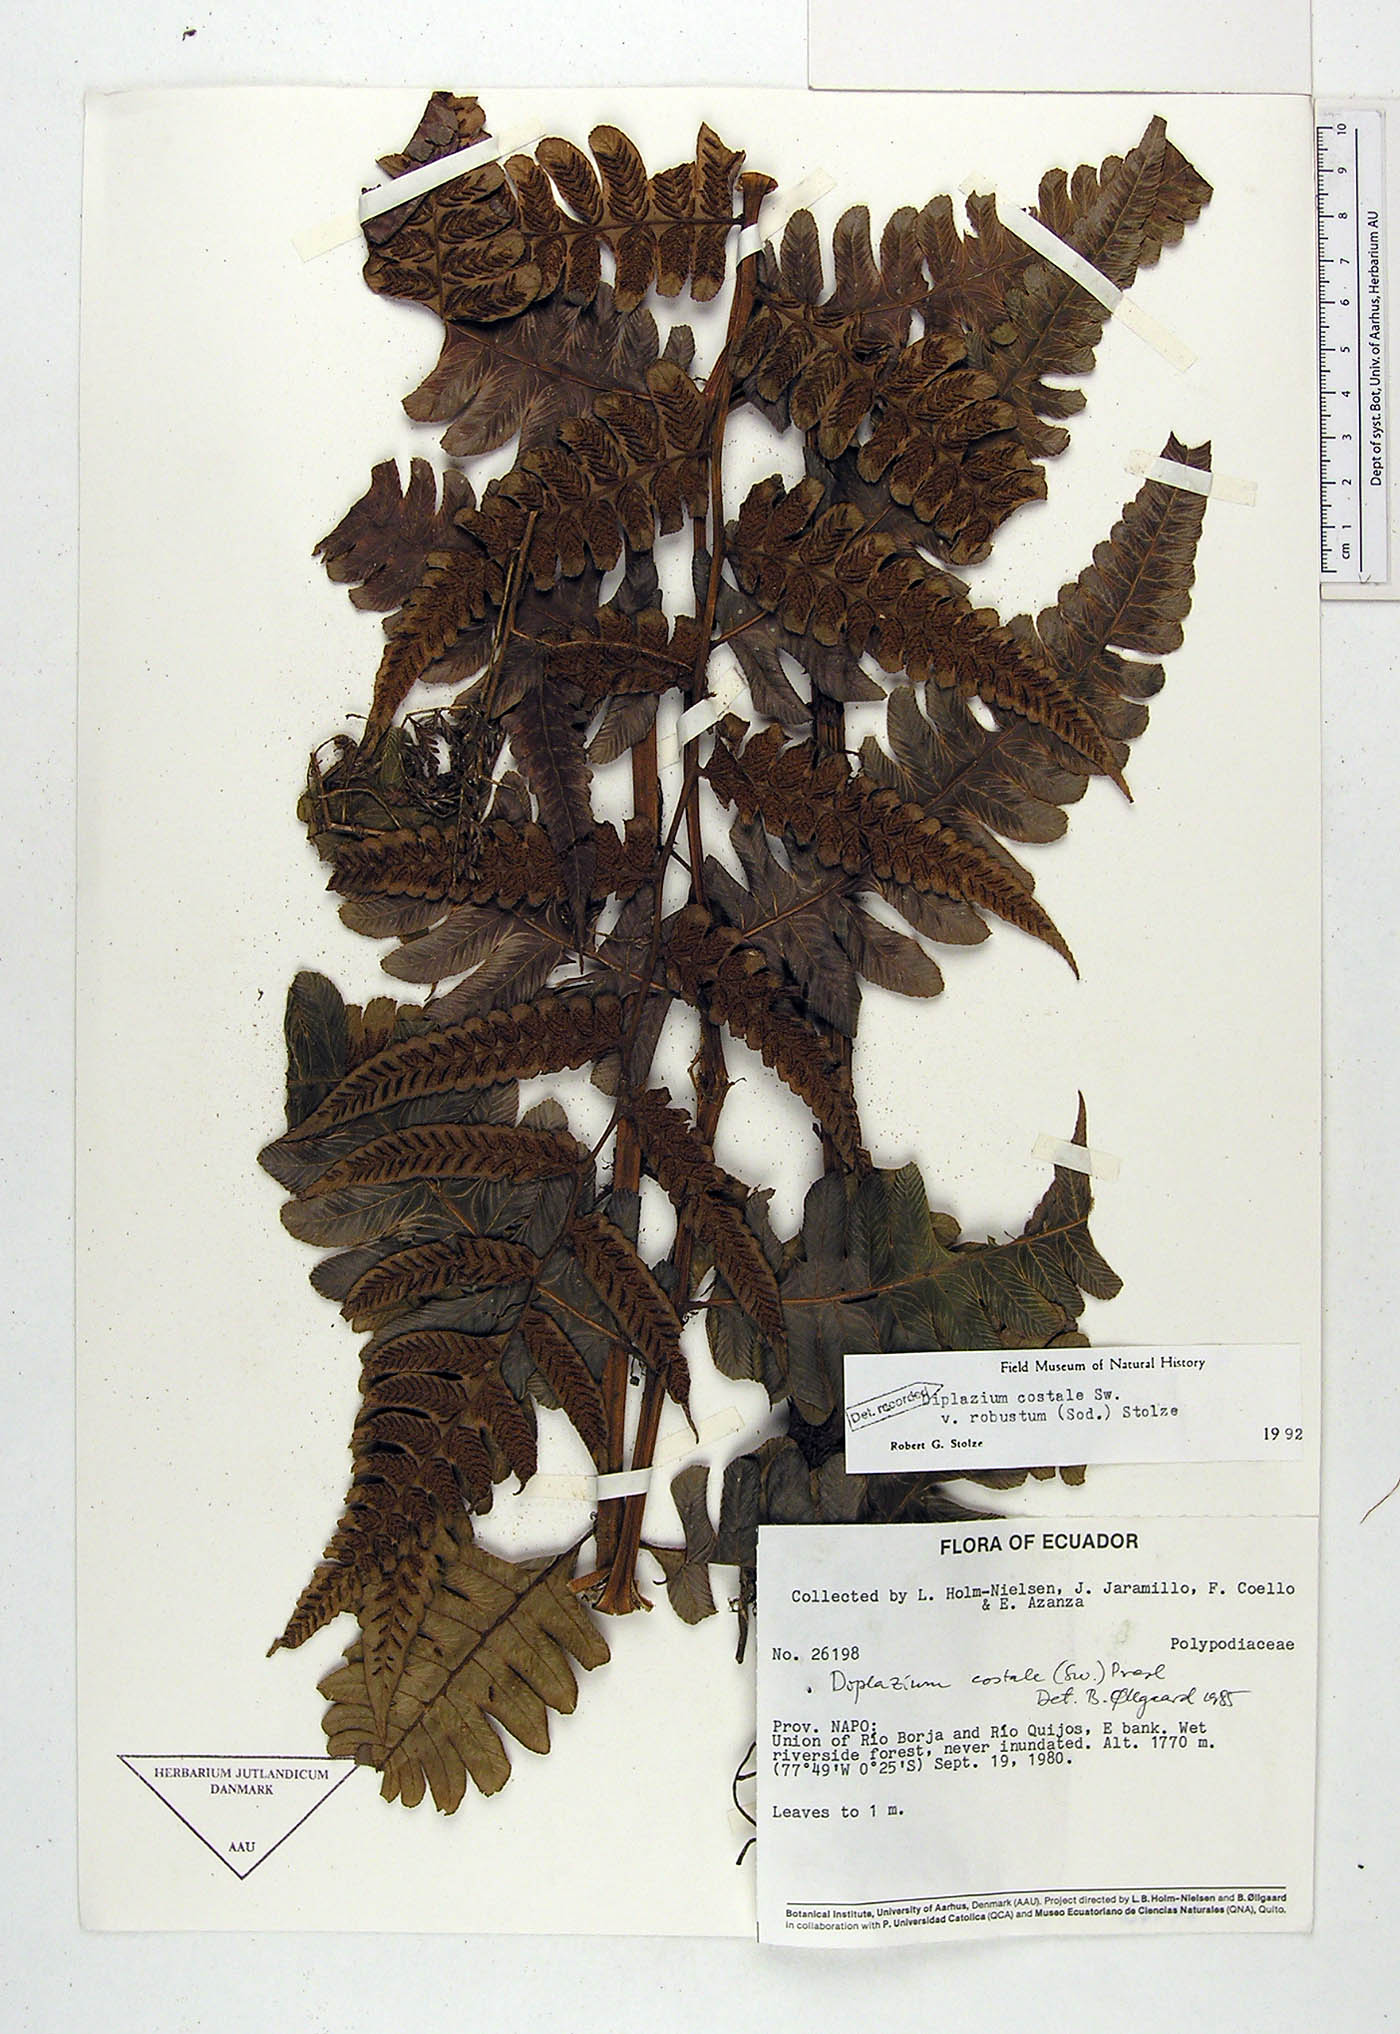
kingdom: Plantae
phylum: Tracheophyta
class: Polypodiopsida
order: Polypodiales
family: Athyriaceae
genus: Diplazium
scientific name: Diplazium costale
